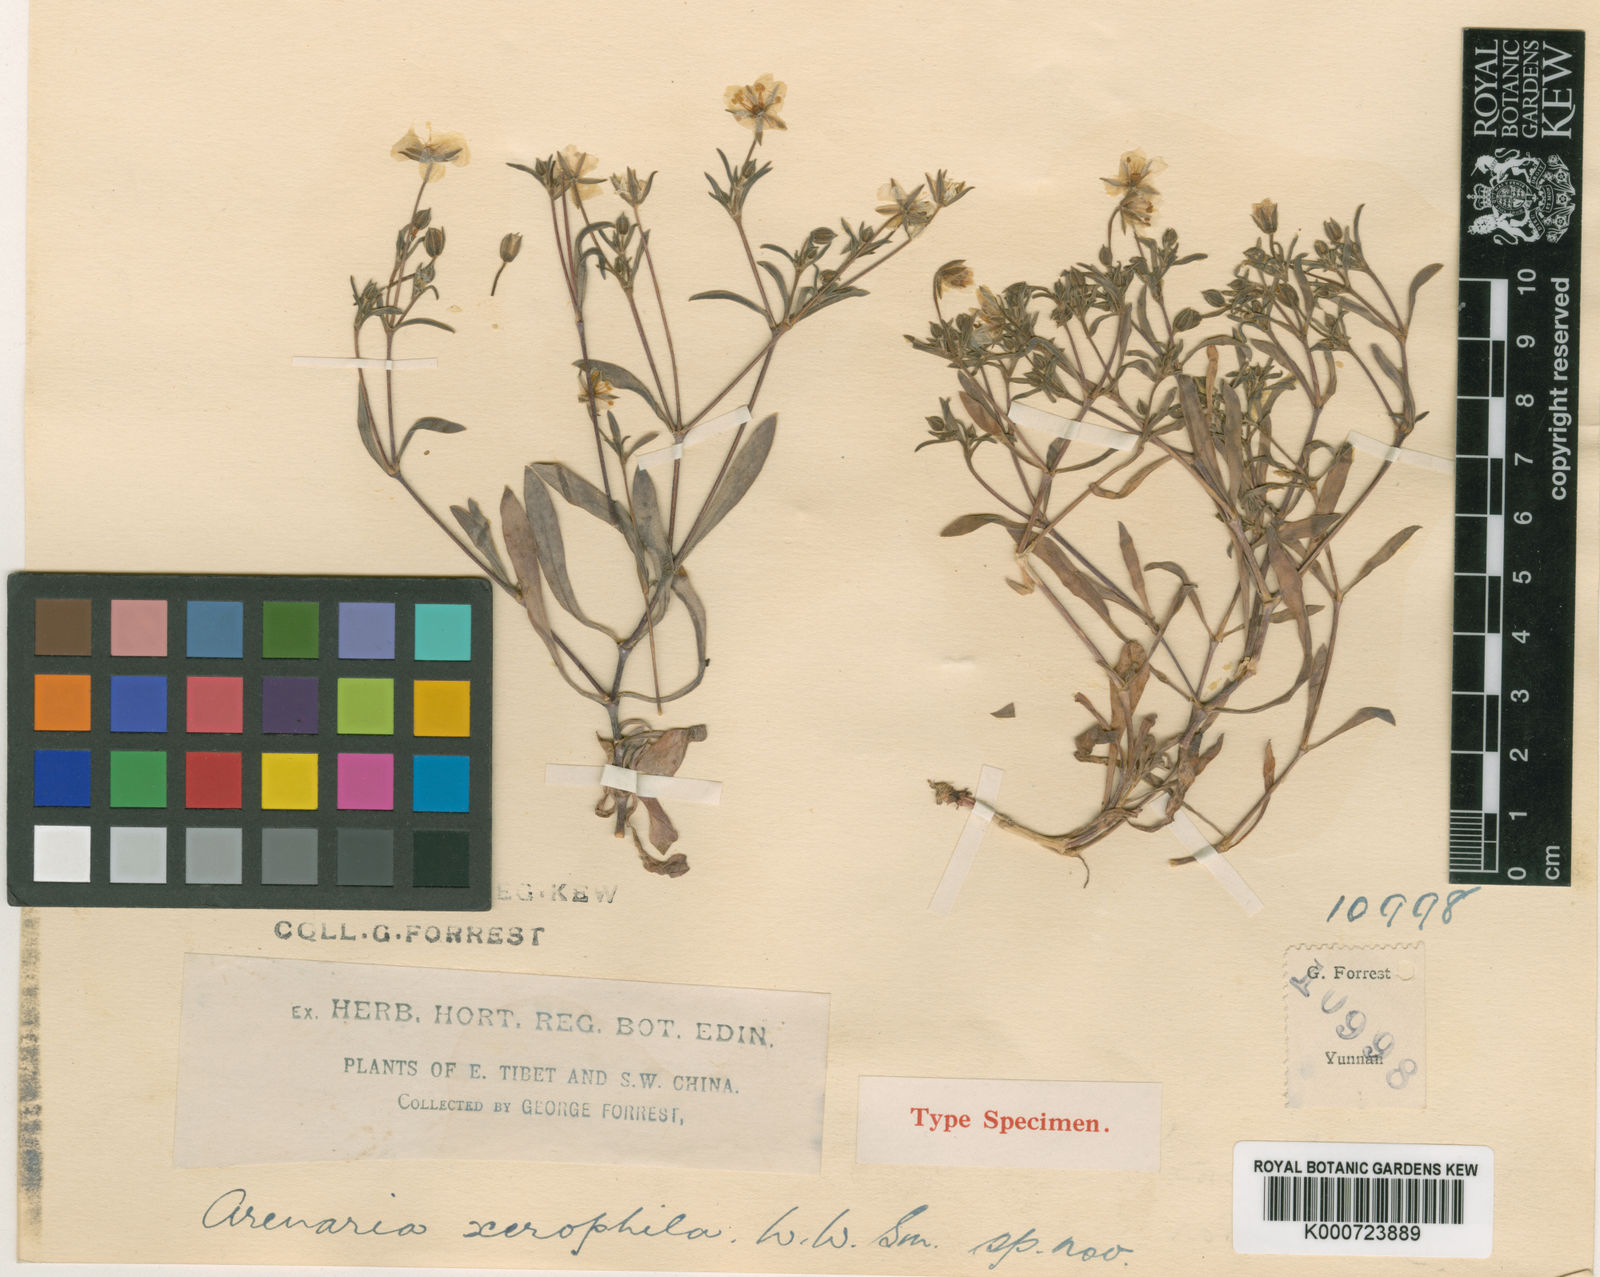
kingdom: Plantae
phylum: Tracheophyta
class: Magnoliopsida
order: Caryophyllales
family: Caryophyllaceae
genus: Odontostemma
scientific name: Odontostemma xerophilum
